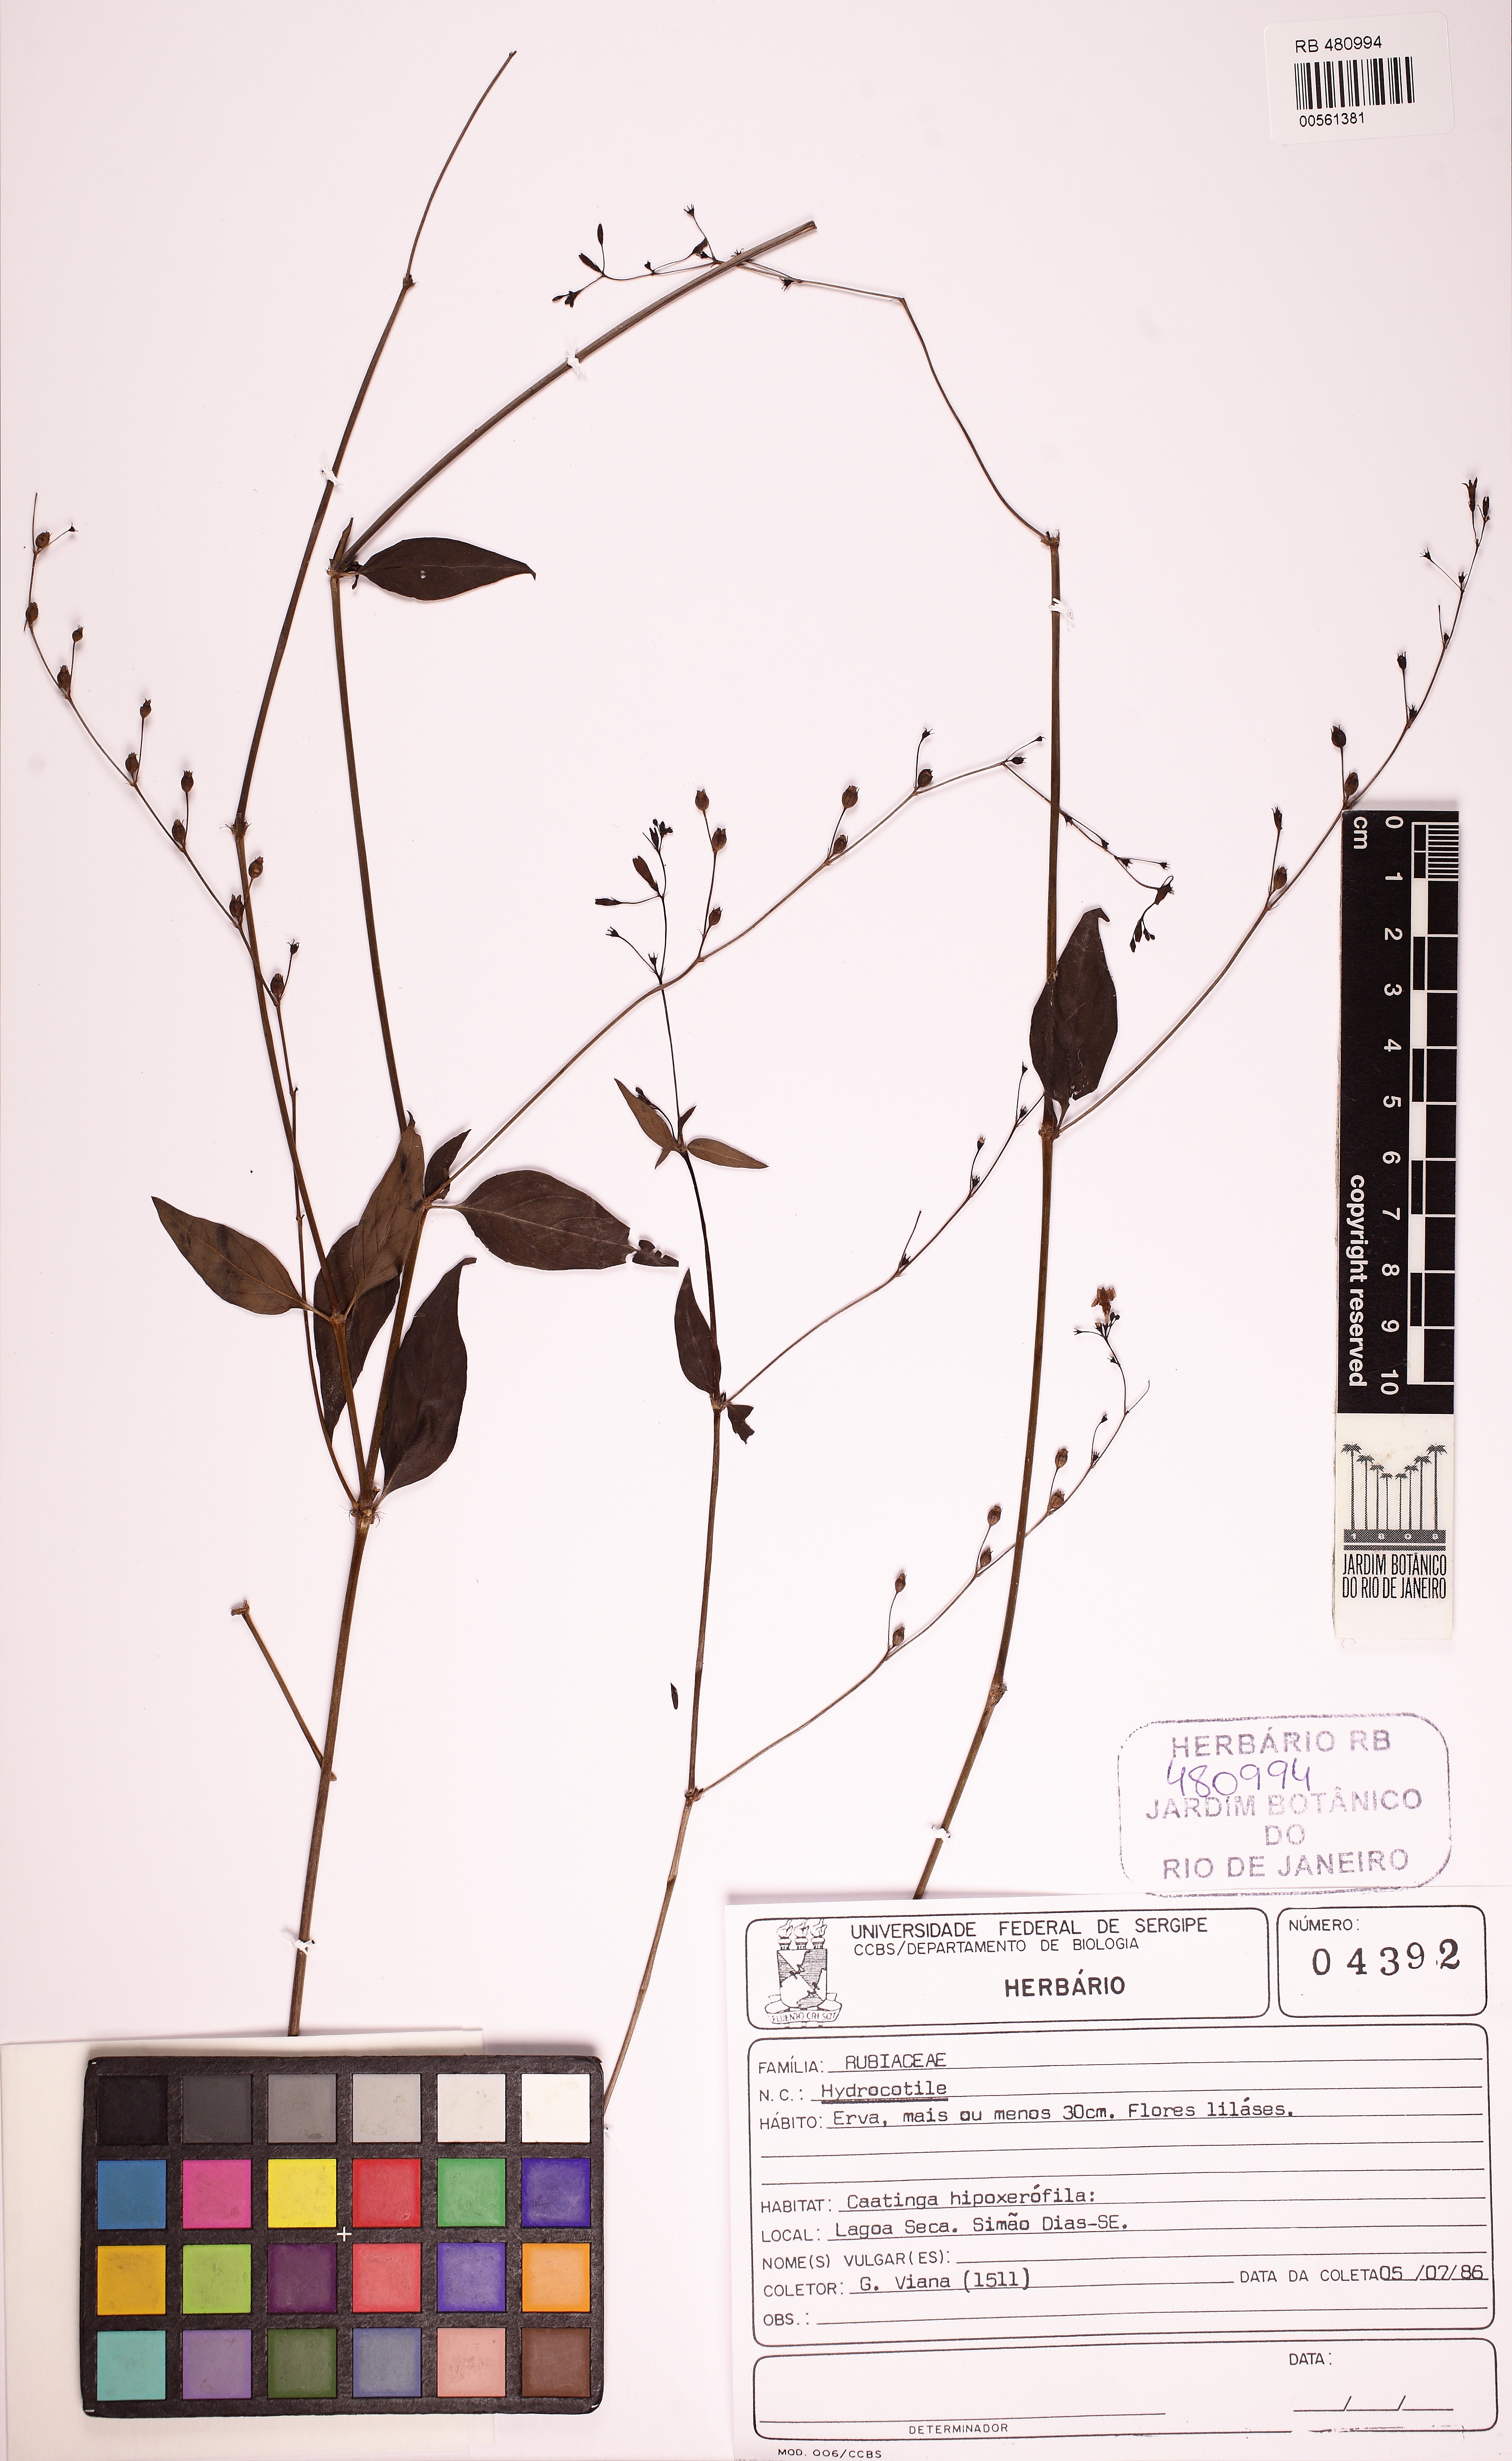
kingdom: Plantae
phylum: Tracheophyta
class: Magnoliopsida
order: Gentianales
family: Rubiaceae
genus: Leptoscela
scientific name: Leptoscela ruellioides
